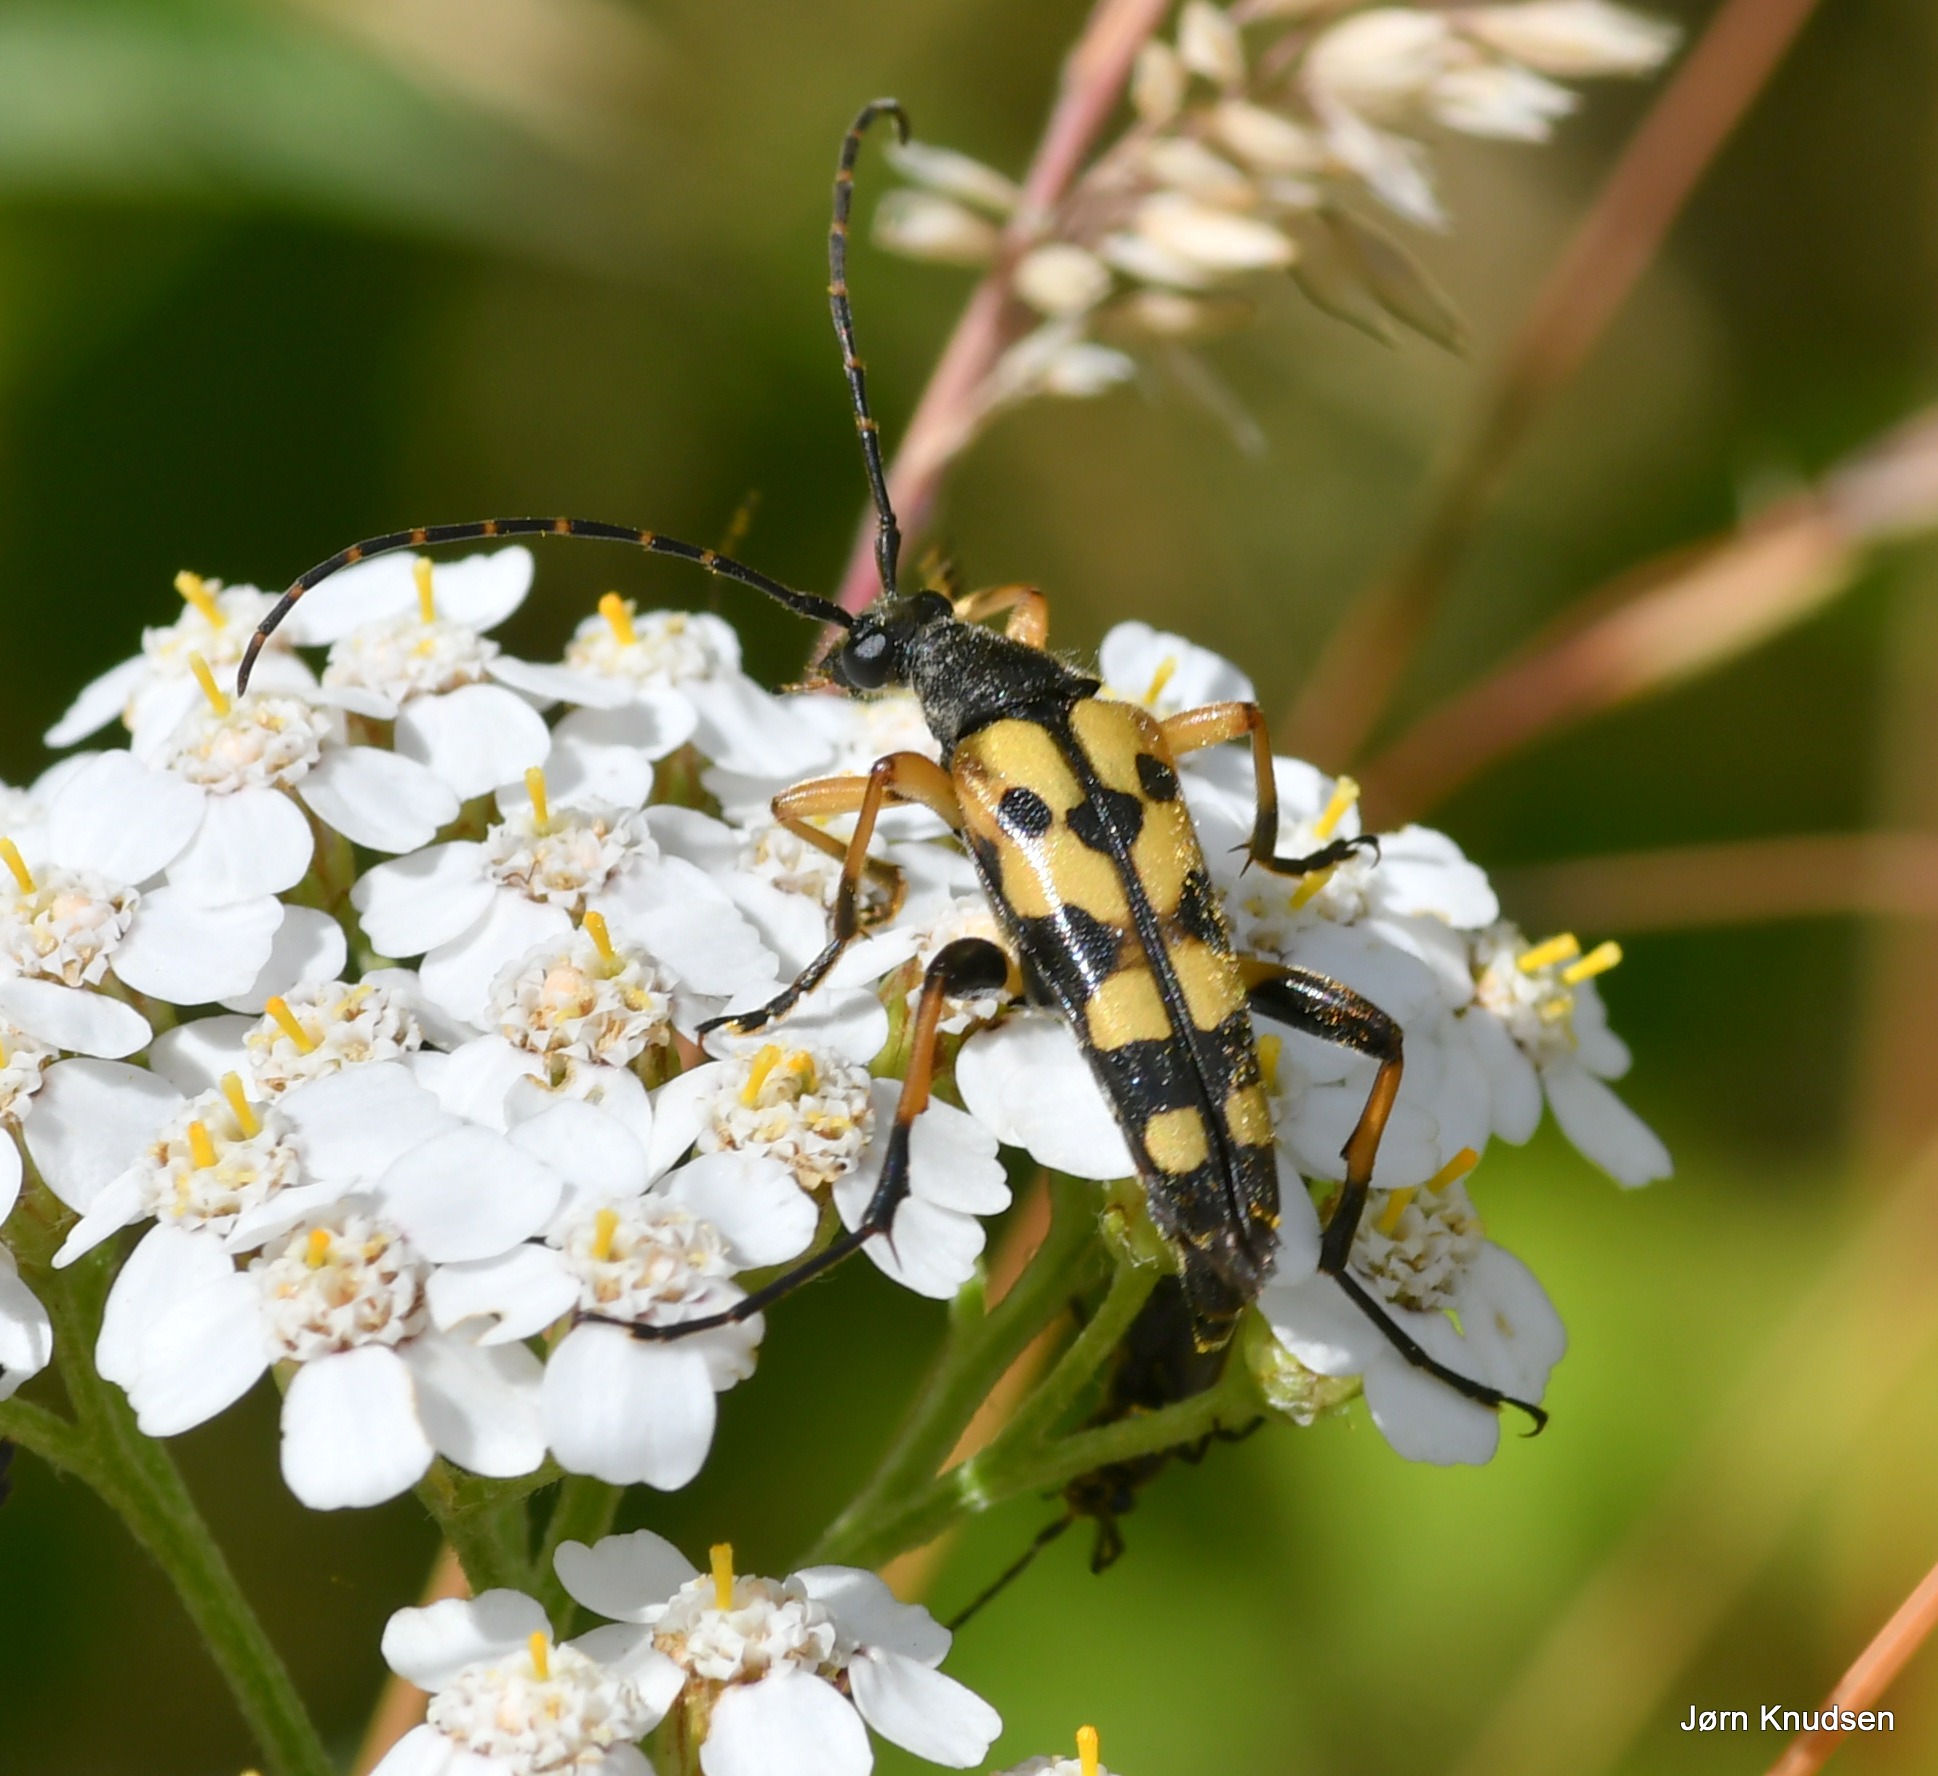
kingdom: Animalia
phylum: Arthropoda
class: Insecta
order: Coleoptera
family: Cerambycidae
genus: Rutpela
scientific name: Rutpela maculata
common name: Sydlig blomsterbuk
